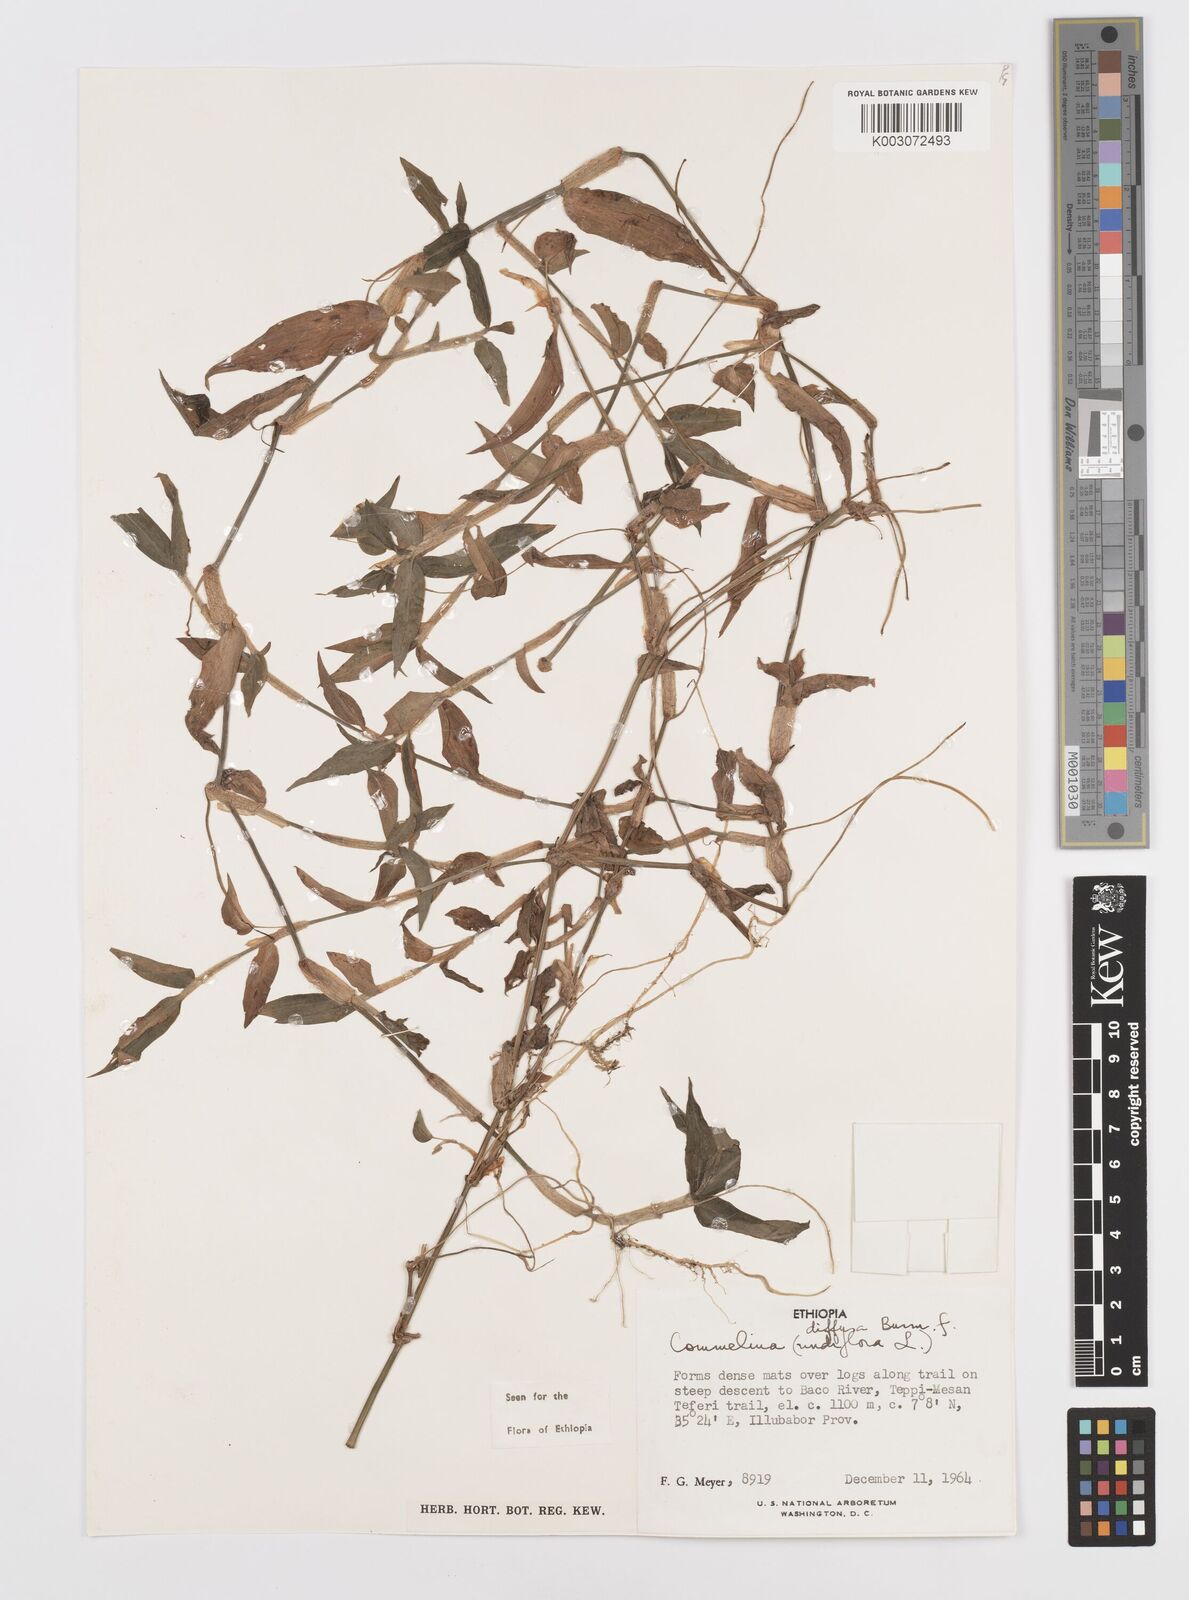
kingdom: Plantae
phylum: Tracheophyta
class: Liliopsida
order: Commelinales
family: Commelinaceae
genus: Commelina
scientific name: Commelina diffusa
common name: Climbing dayflower
